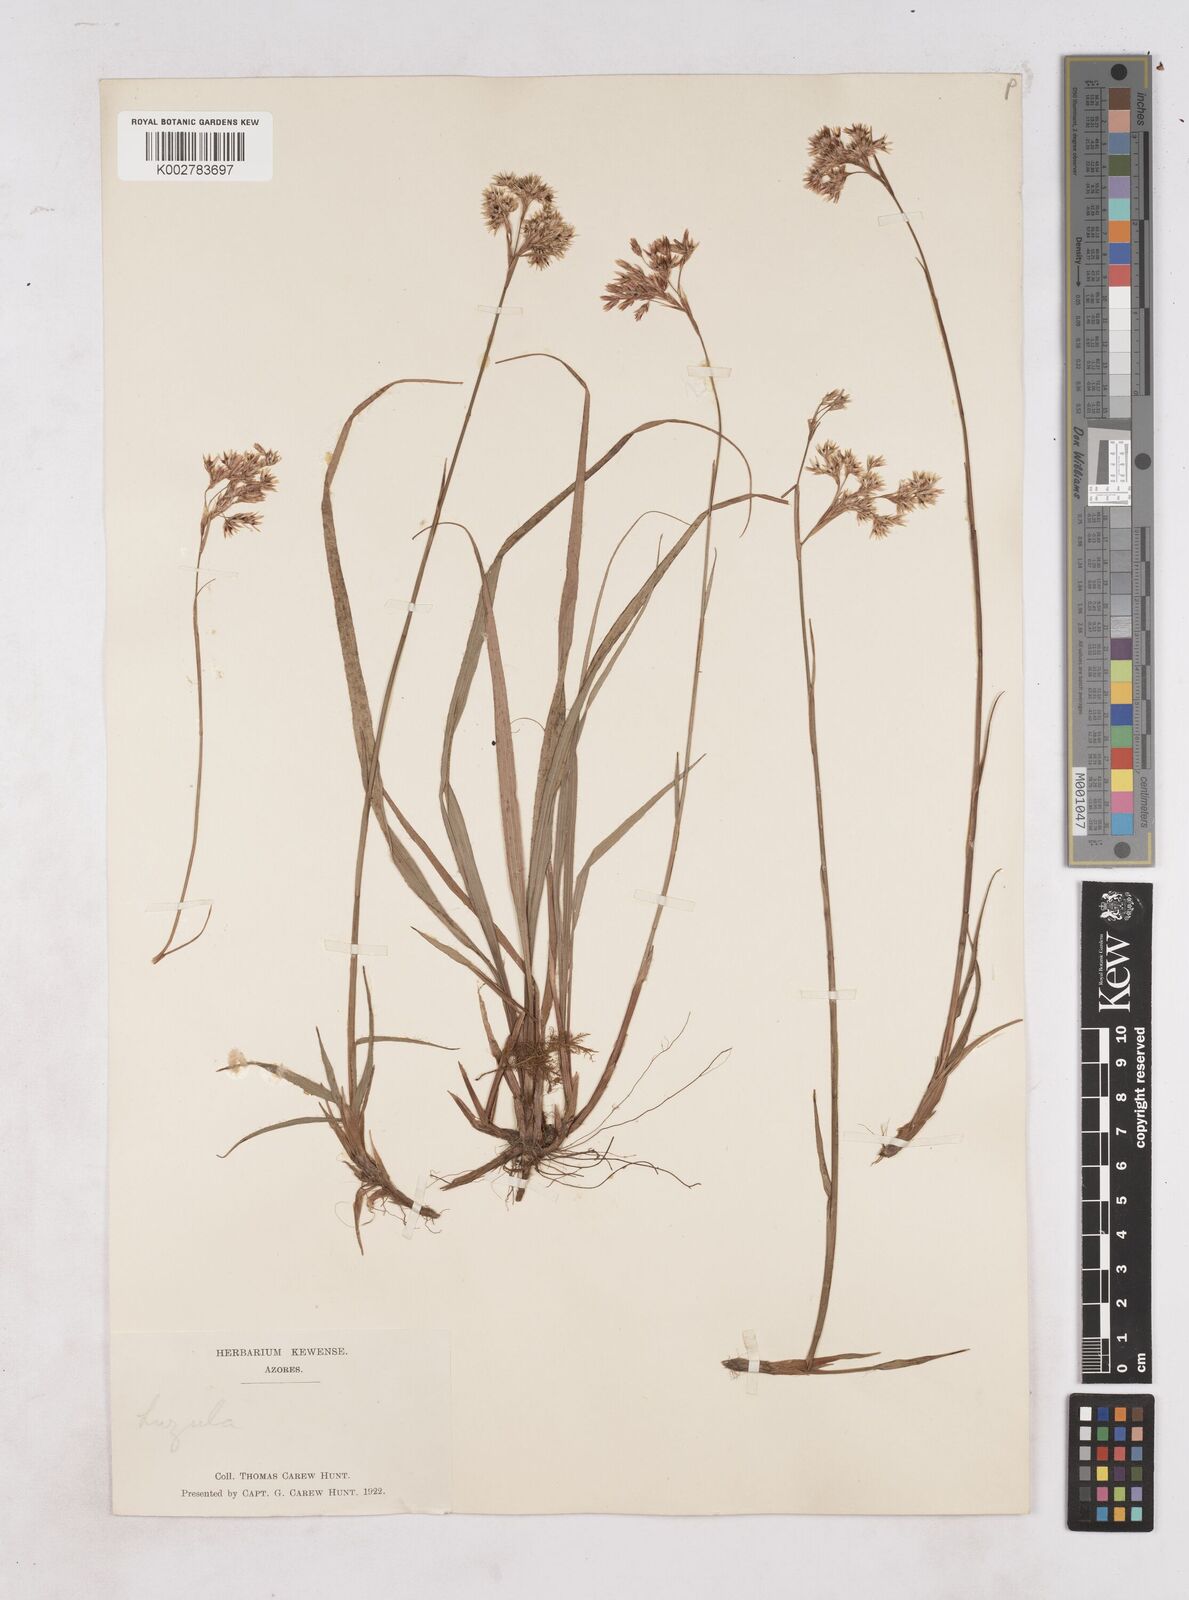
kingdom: Plantae
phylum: Tracheophyta
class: Liliopsida
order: Poales
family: Juncaceae
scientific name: Juncaceae
